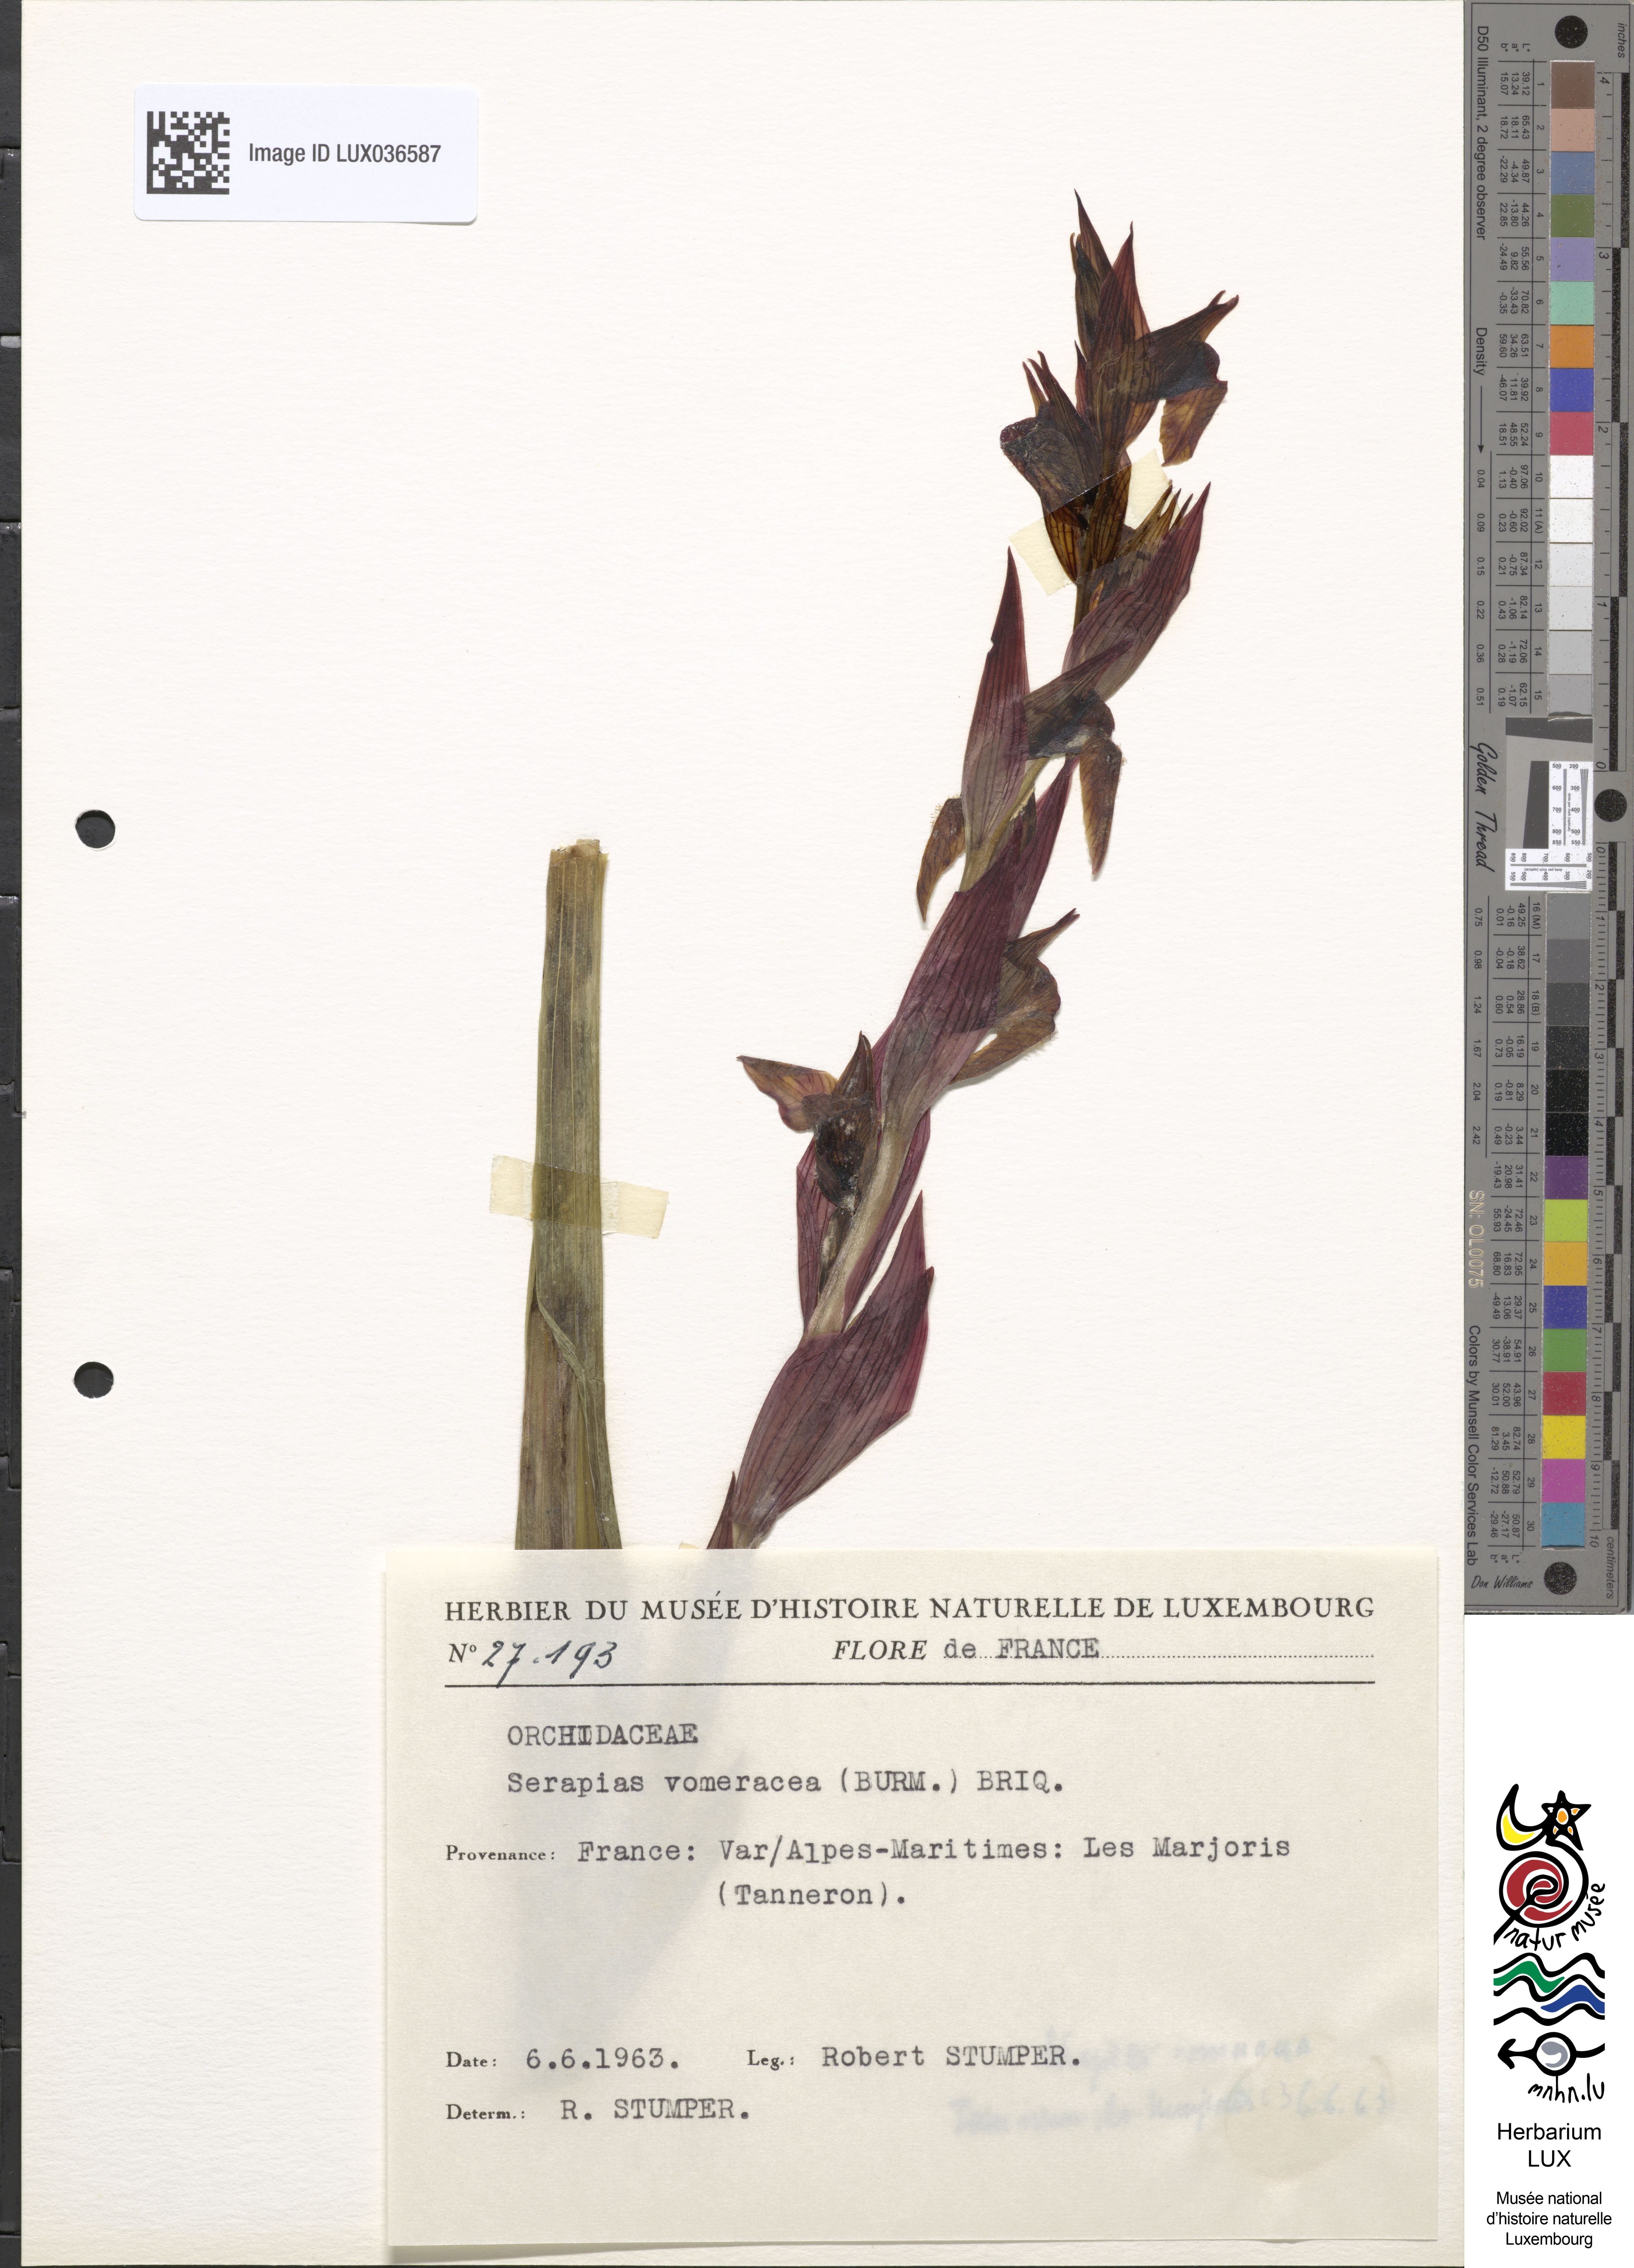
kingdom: Plantae
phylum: Tracheophyta
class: Liliopsida
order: Asparagales
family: Orchidaceae
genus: Serapias
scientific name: Serapias vomeracea
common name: Long-lipped tongue-orchid
